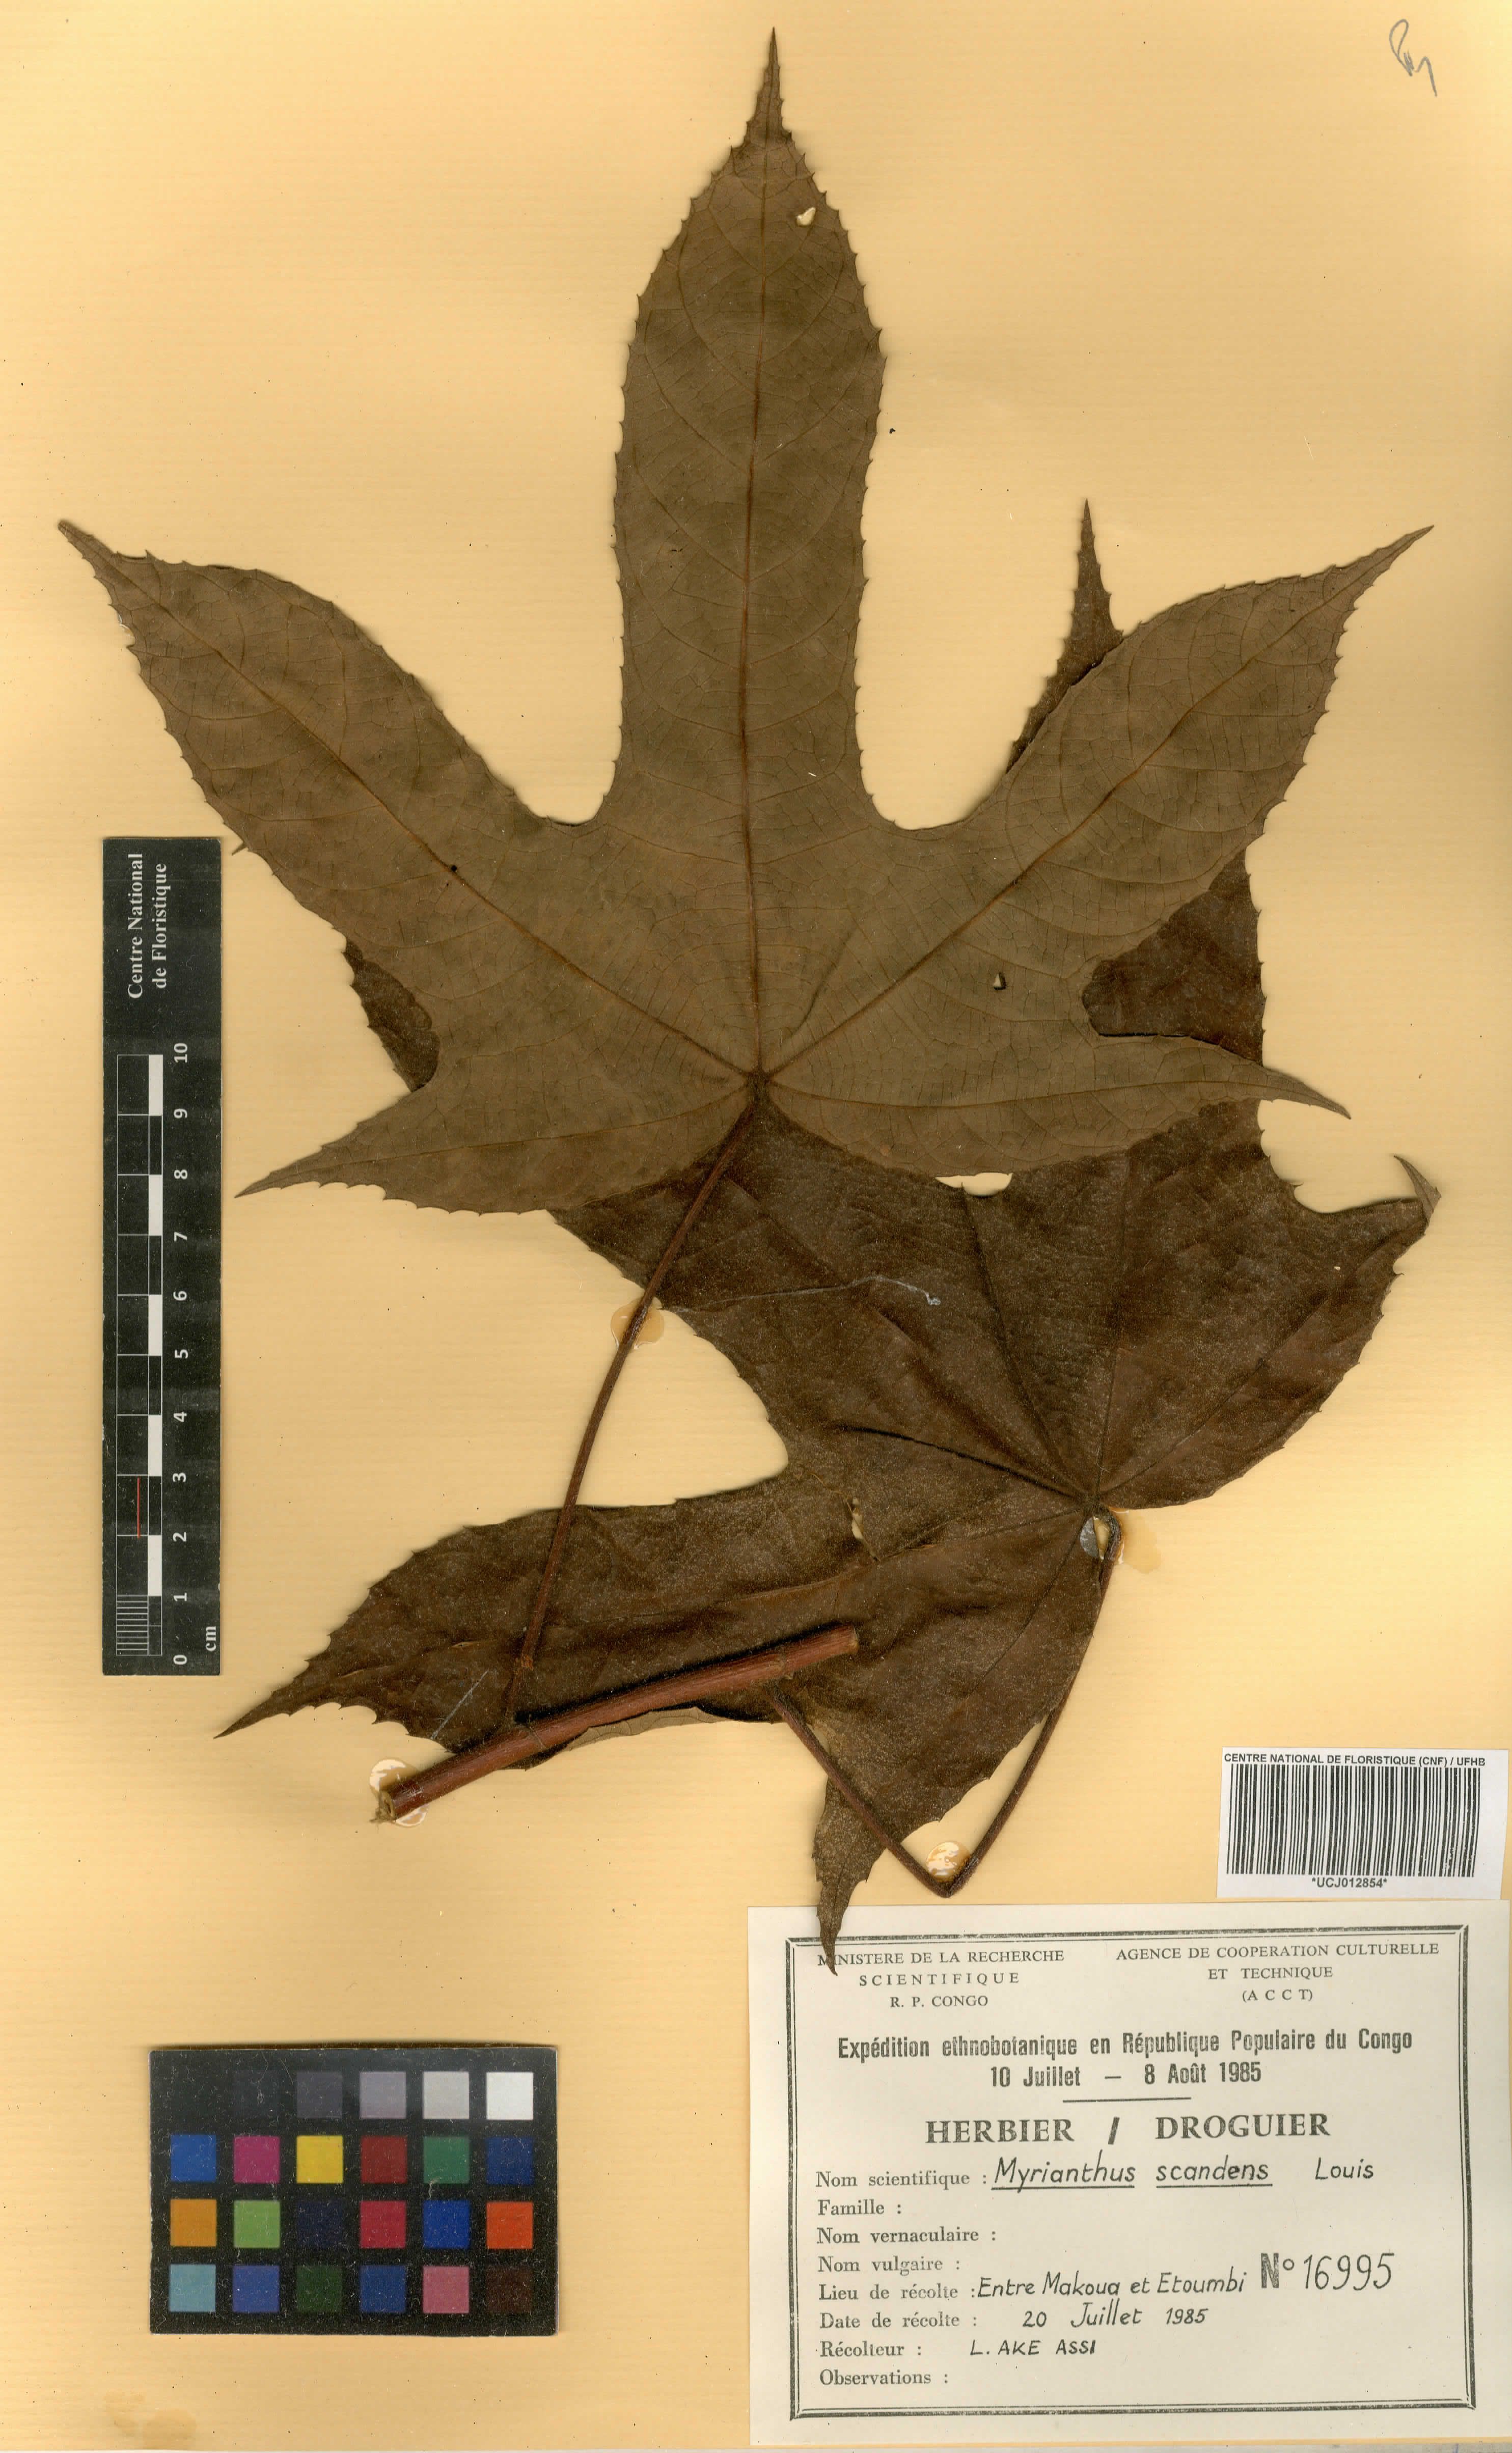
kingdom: Plantae
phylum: Tracheophyta
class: Magnoliopsida
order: Rosales
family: Urticaceae
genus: Myrianthus
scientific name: Myrianthus scandens
